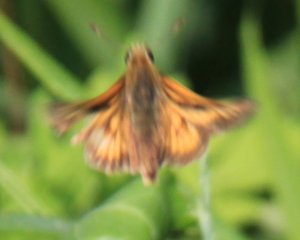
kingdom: Animalia
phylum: Arthropoda
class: Insecta
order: Lepidoptera
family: Hesperiidae
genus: Polites
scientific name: Polites
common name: Long Dash Skipper
